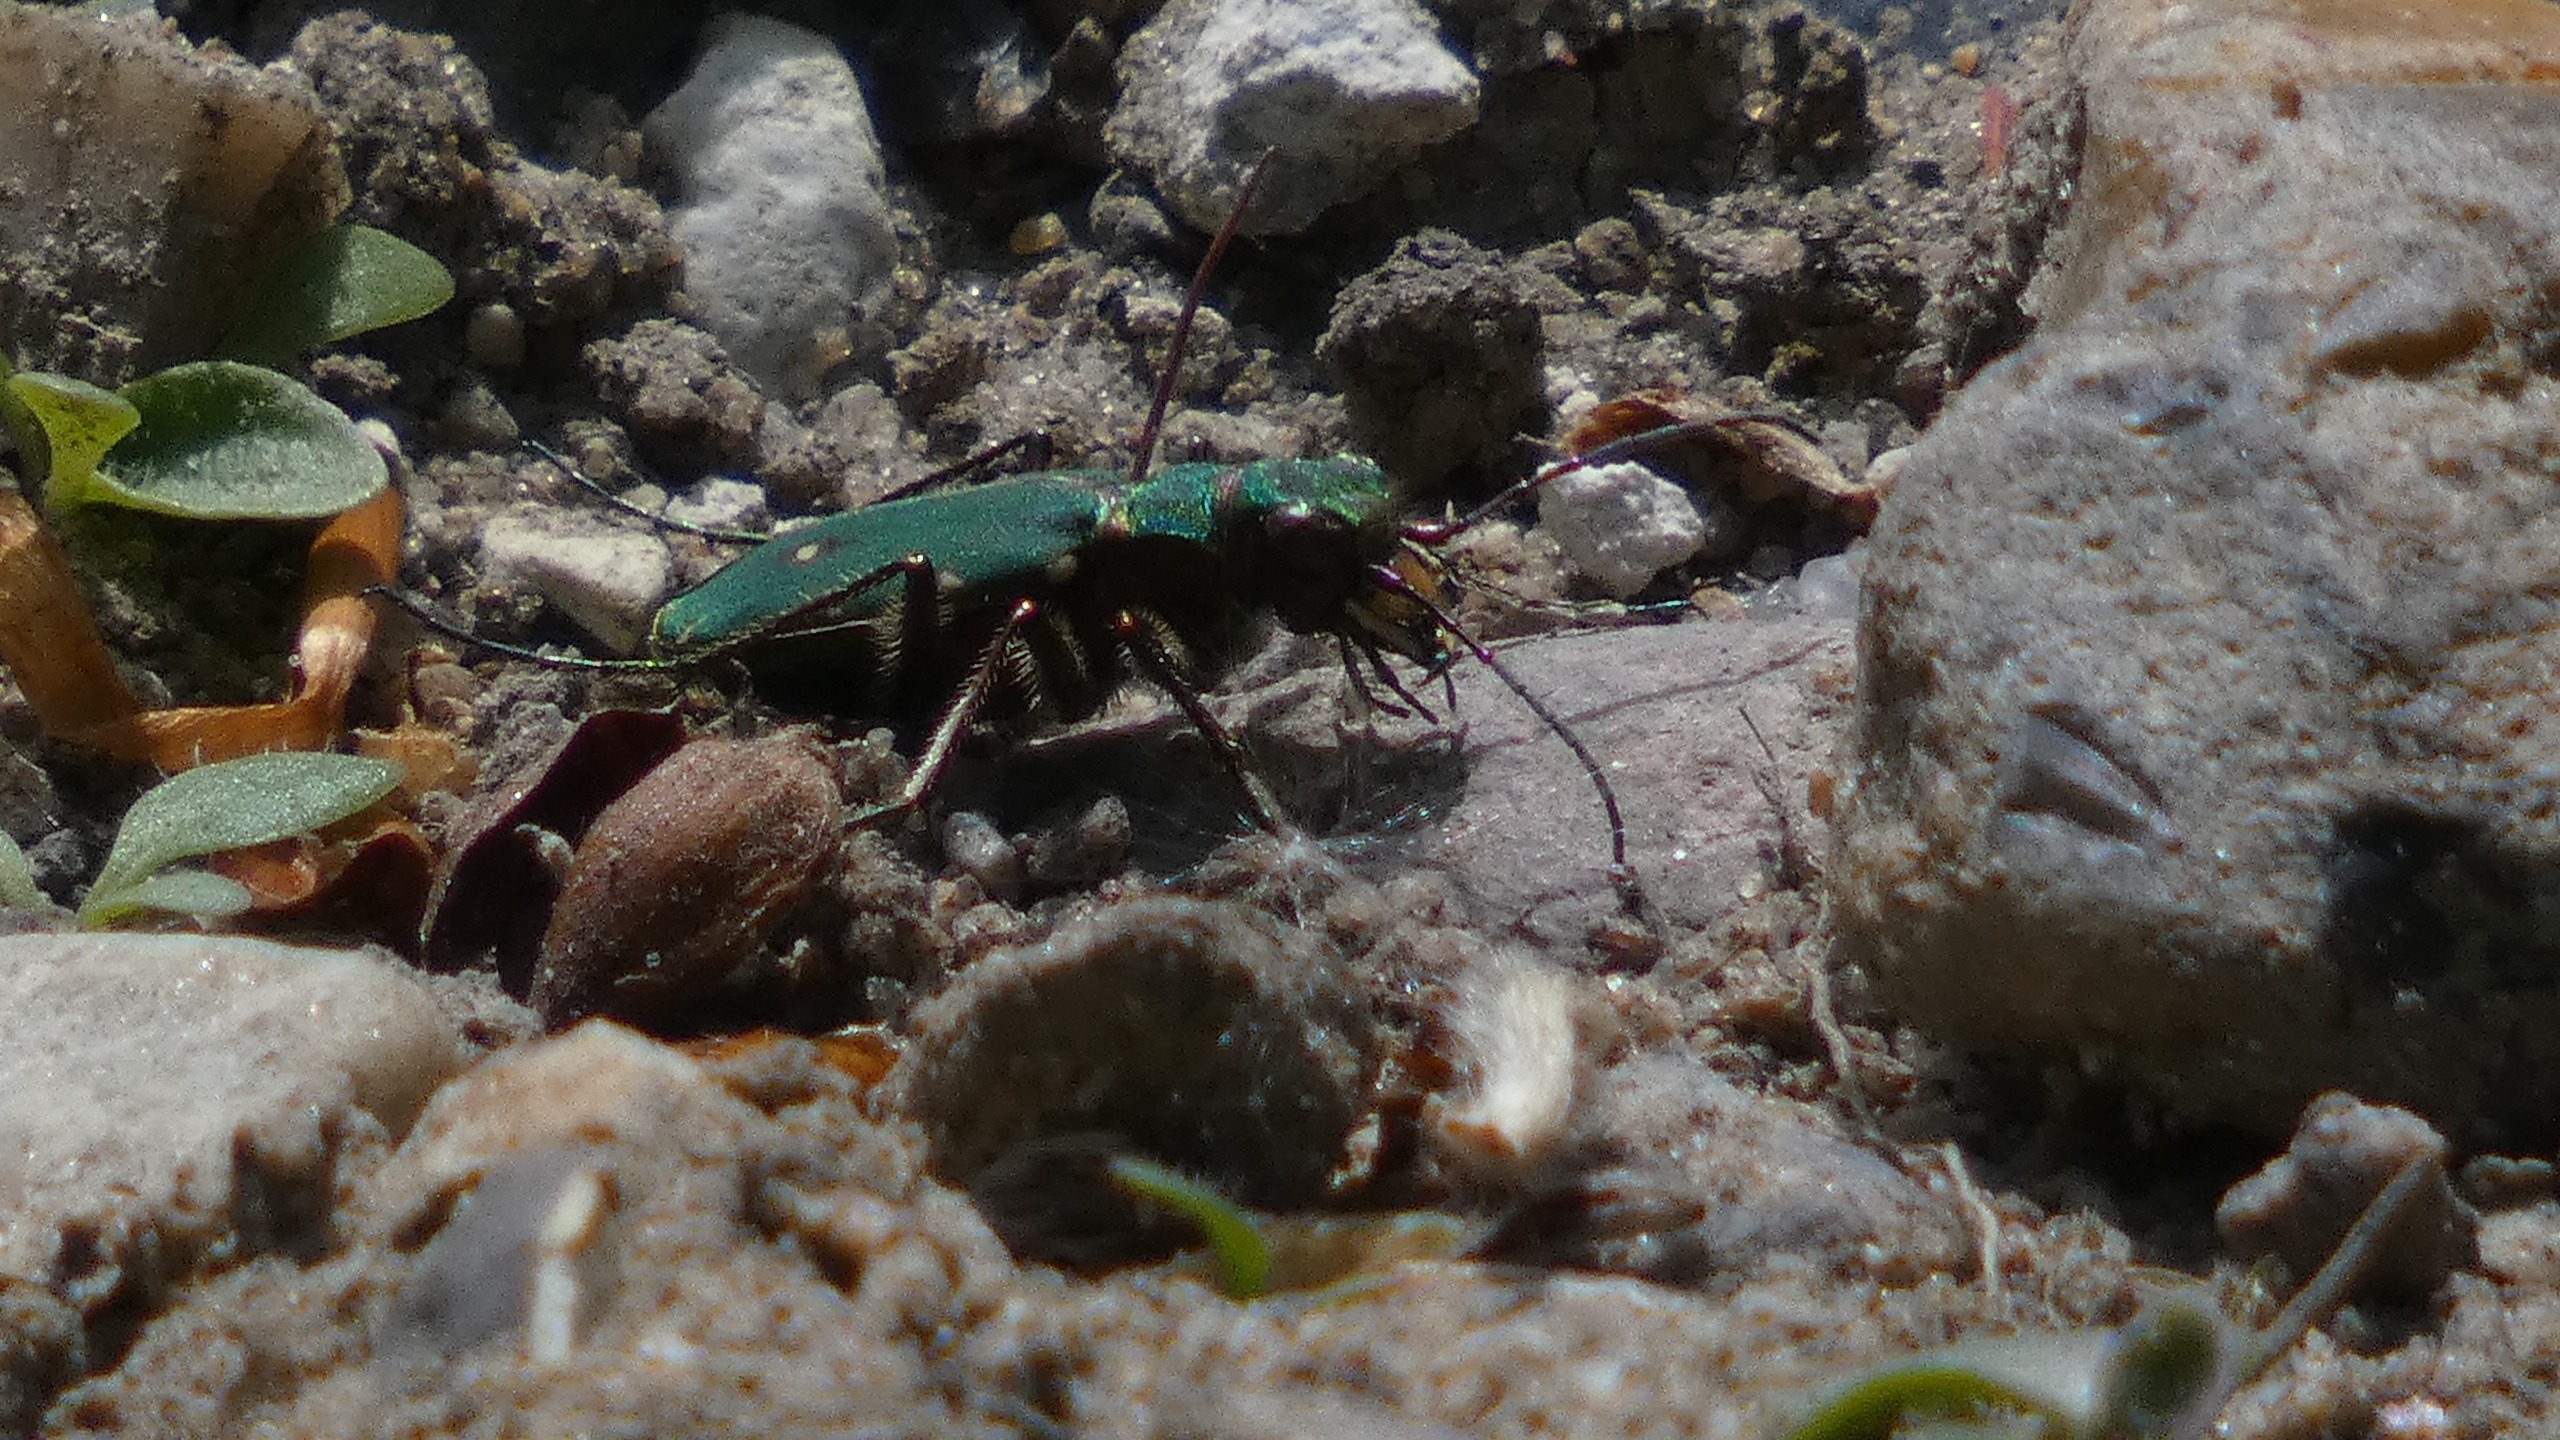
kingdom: Animalia
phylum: Arthropoda
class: Insecta
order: Coleoptera
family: Carabidae
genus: Cicindela
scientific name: Cicindela campestris
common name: Grøn sandspringer
